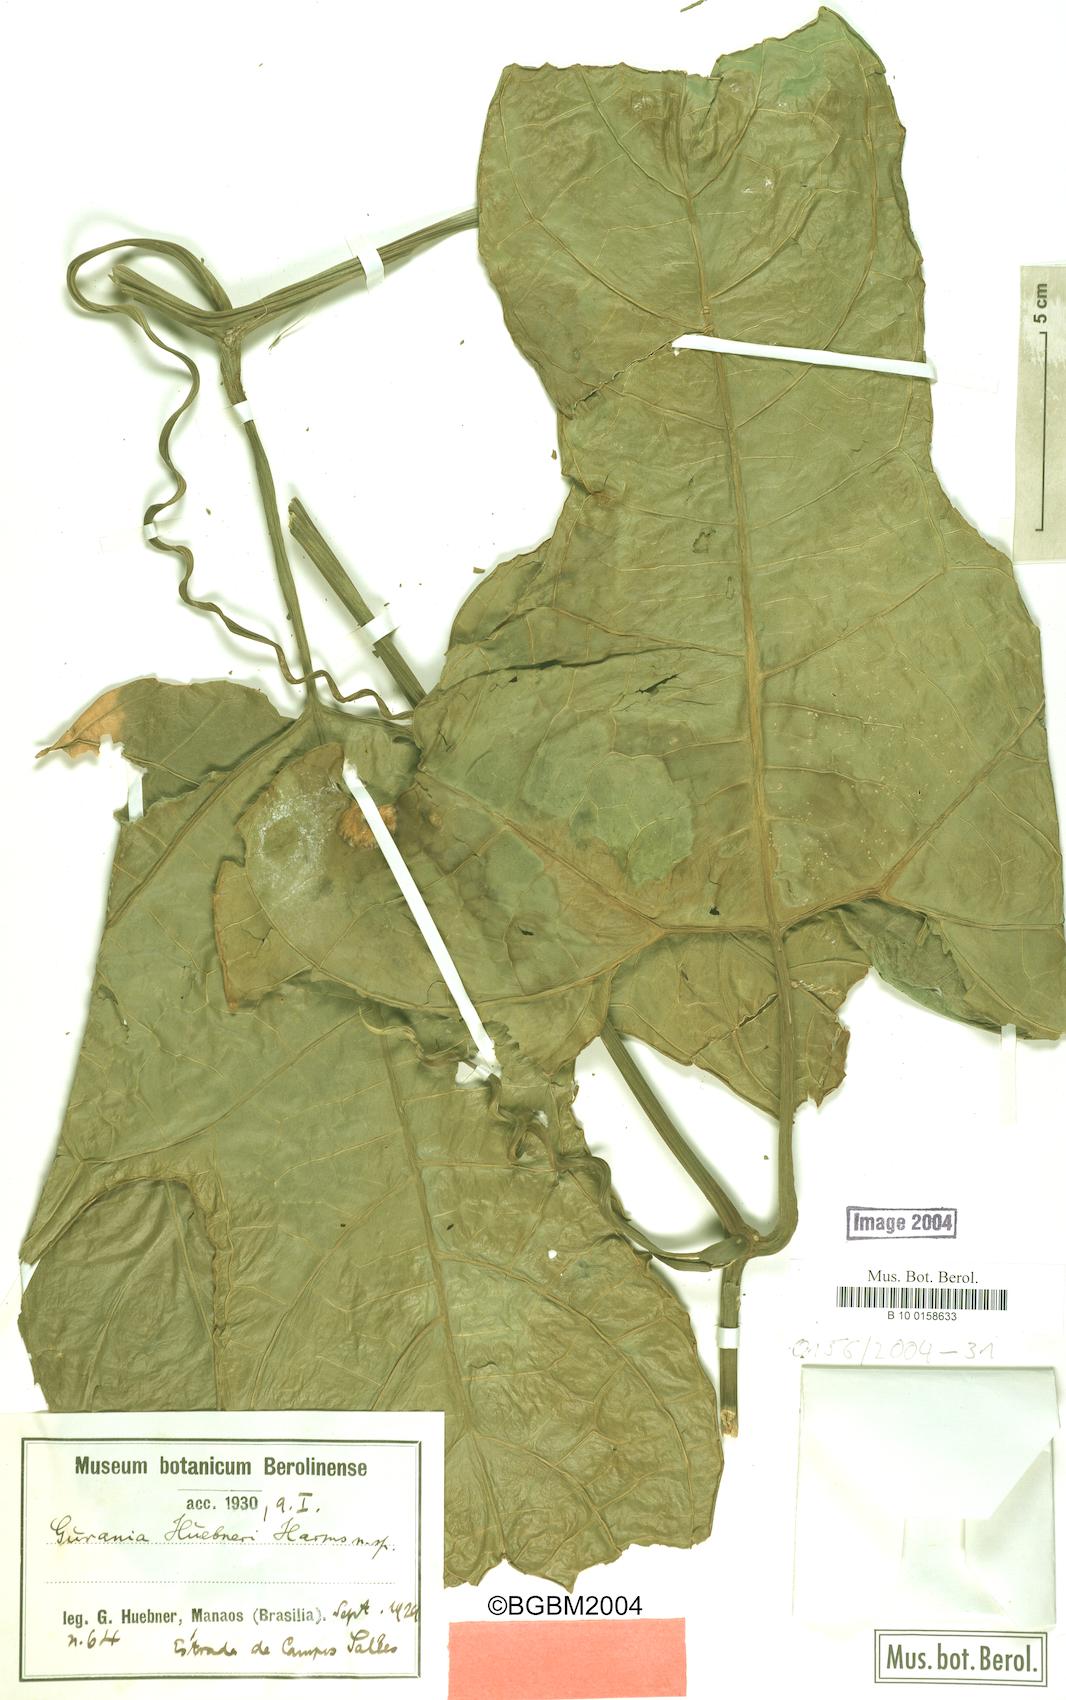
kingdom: Plantae
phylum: Tracheophyta
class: Magnoliopsida
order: Cucurbitales
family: Cucurbitaceae
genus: Gurania
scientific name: Gurania huebneri
